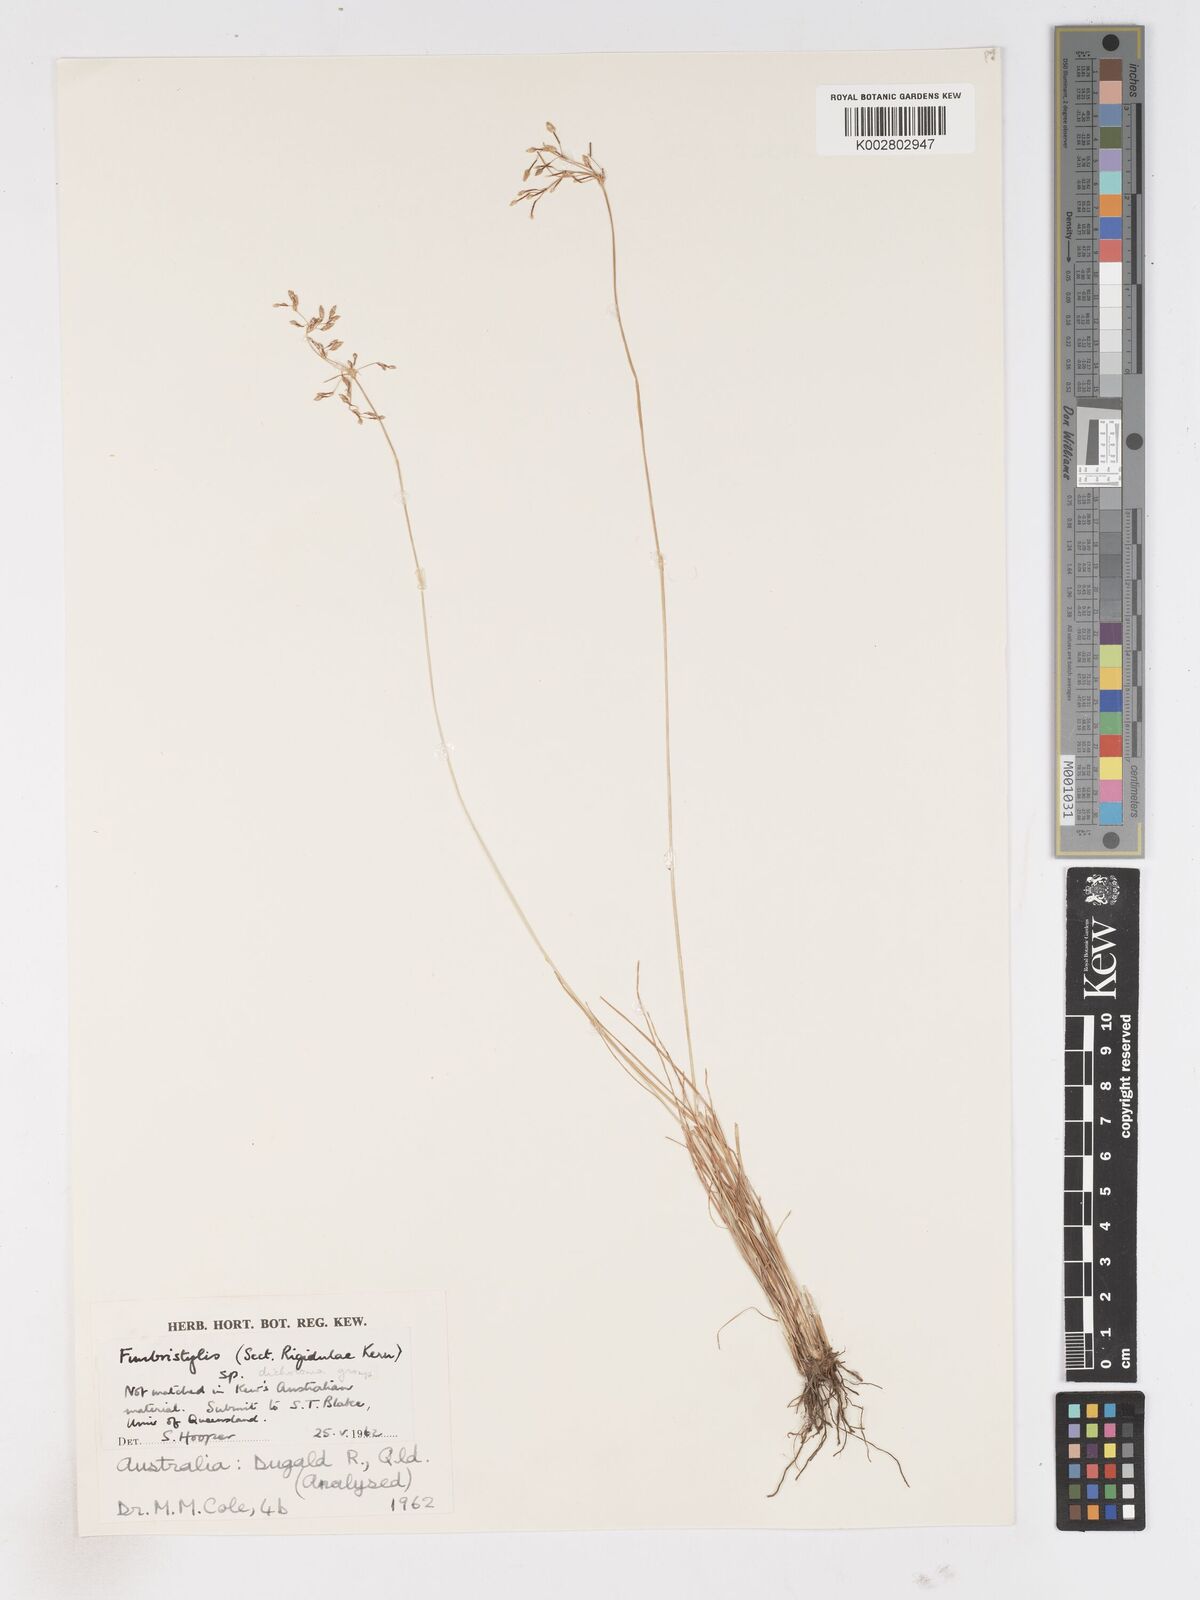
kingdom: Plantae
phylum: Tracheophyta
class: Liliopsida
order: Poales
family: Cyperaceae
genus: Fimbristylis
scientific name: Fimbristylis
